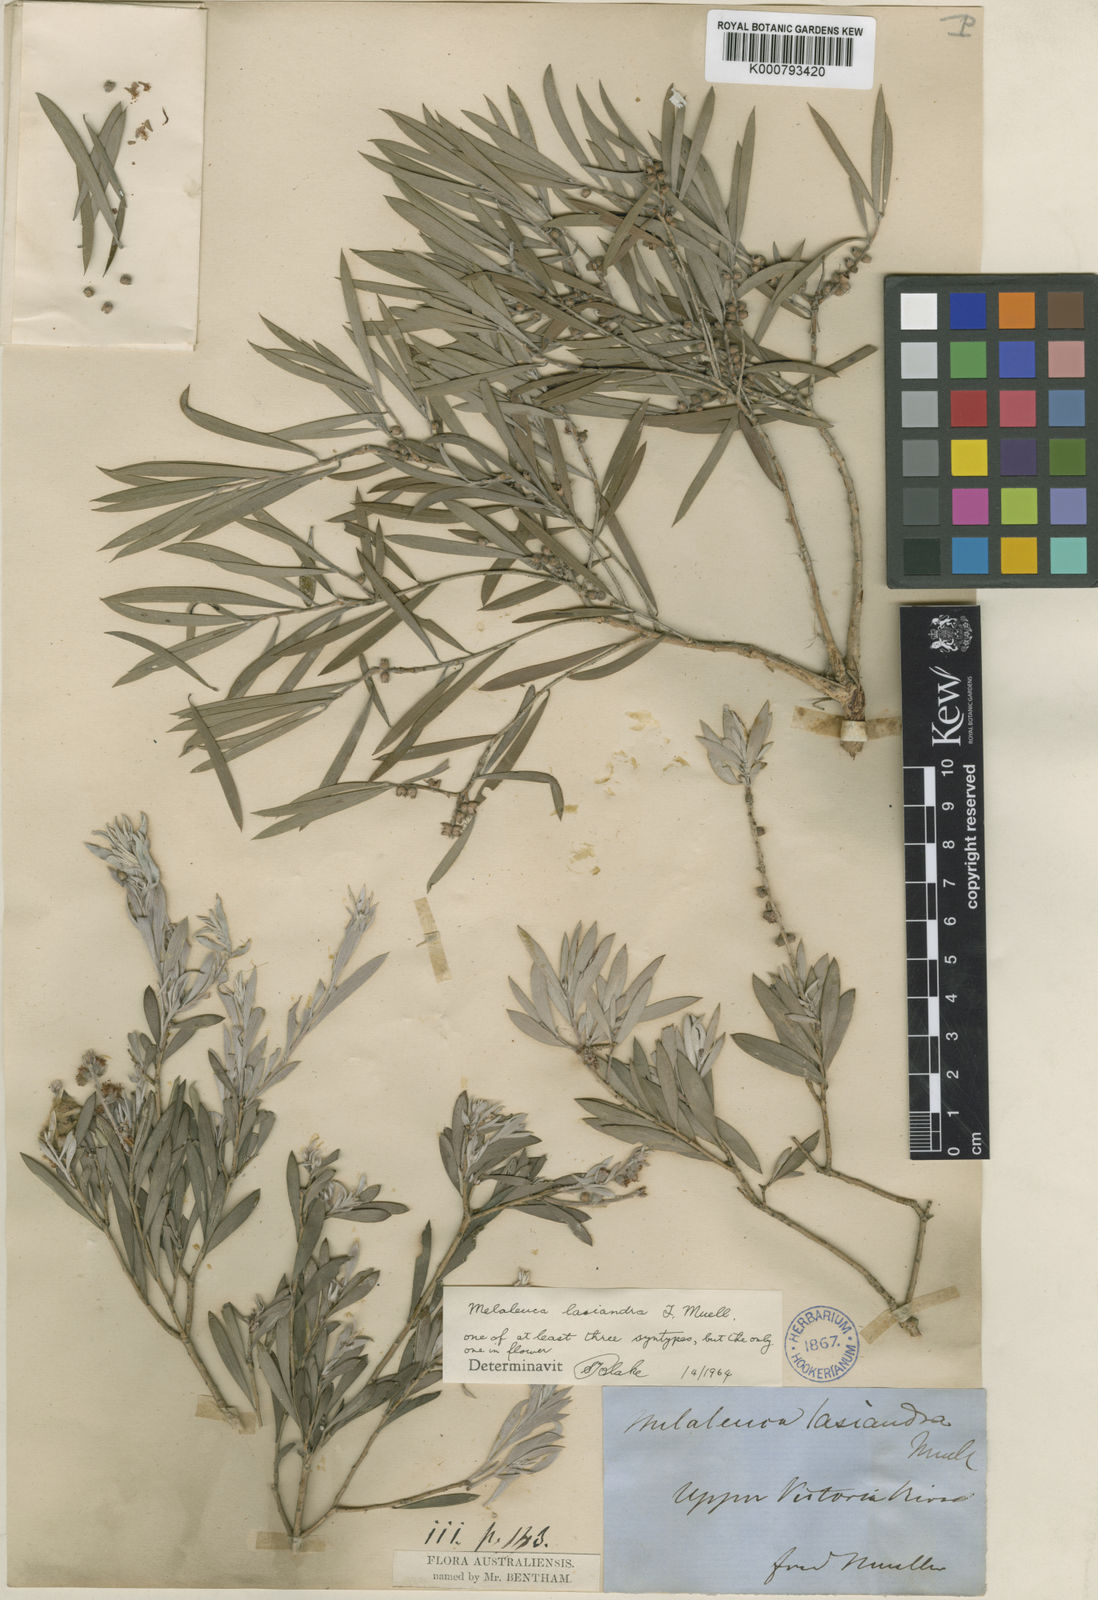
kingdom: Plantae
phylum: Tracheophyta
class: Magnoliopsida
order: Myrtales
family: Myrtaceae
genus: Melaleuca
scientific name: Melaleuca lasiandra
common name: Sandhill tea-tree
